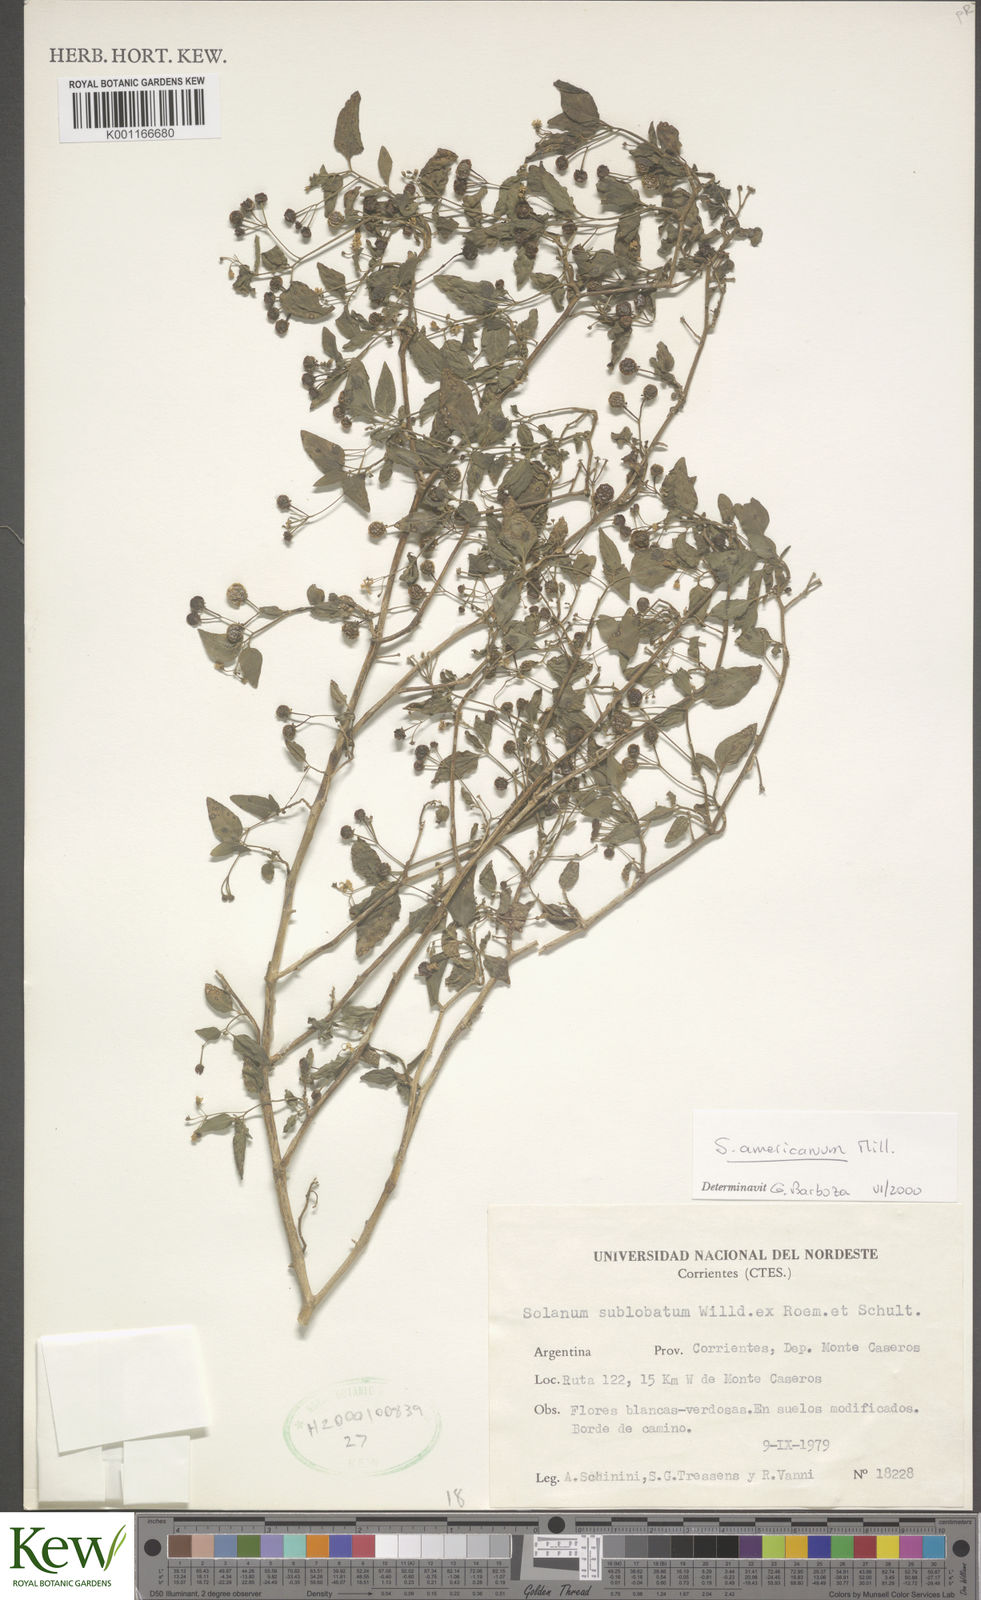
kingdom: Plantae
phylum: Tracheophyta
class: Magnoliopsida
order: Solanales
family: Solanaceae
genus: Solanum
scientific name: Solanum americanum
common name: American black nightshade
